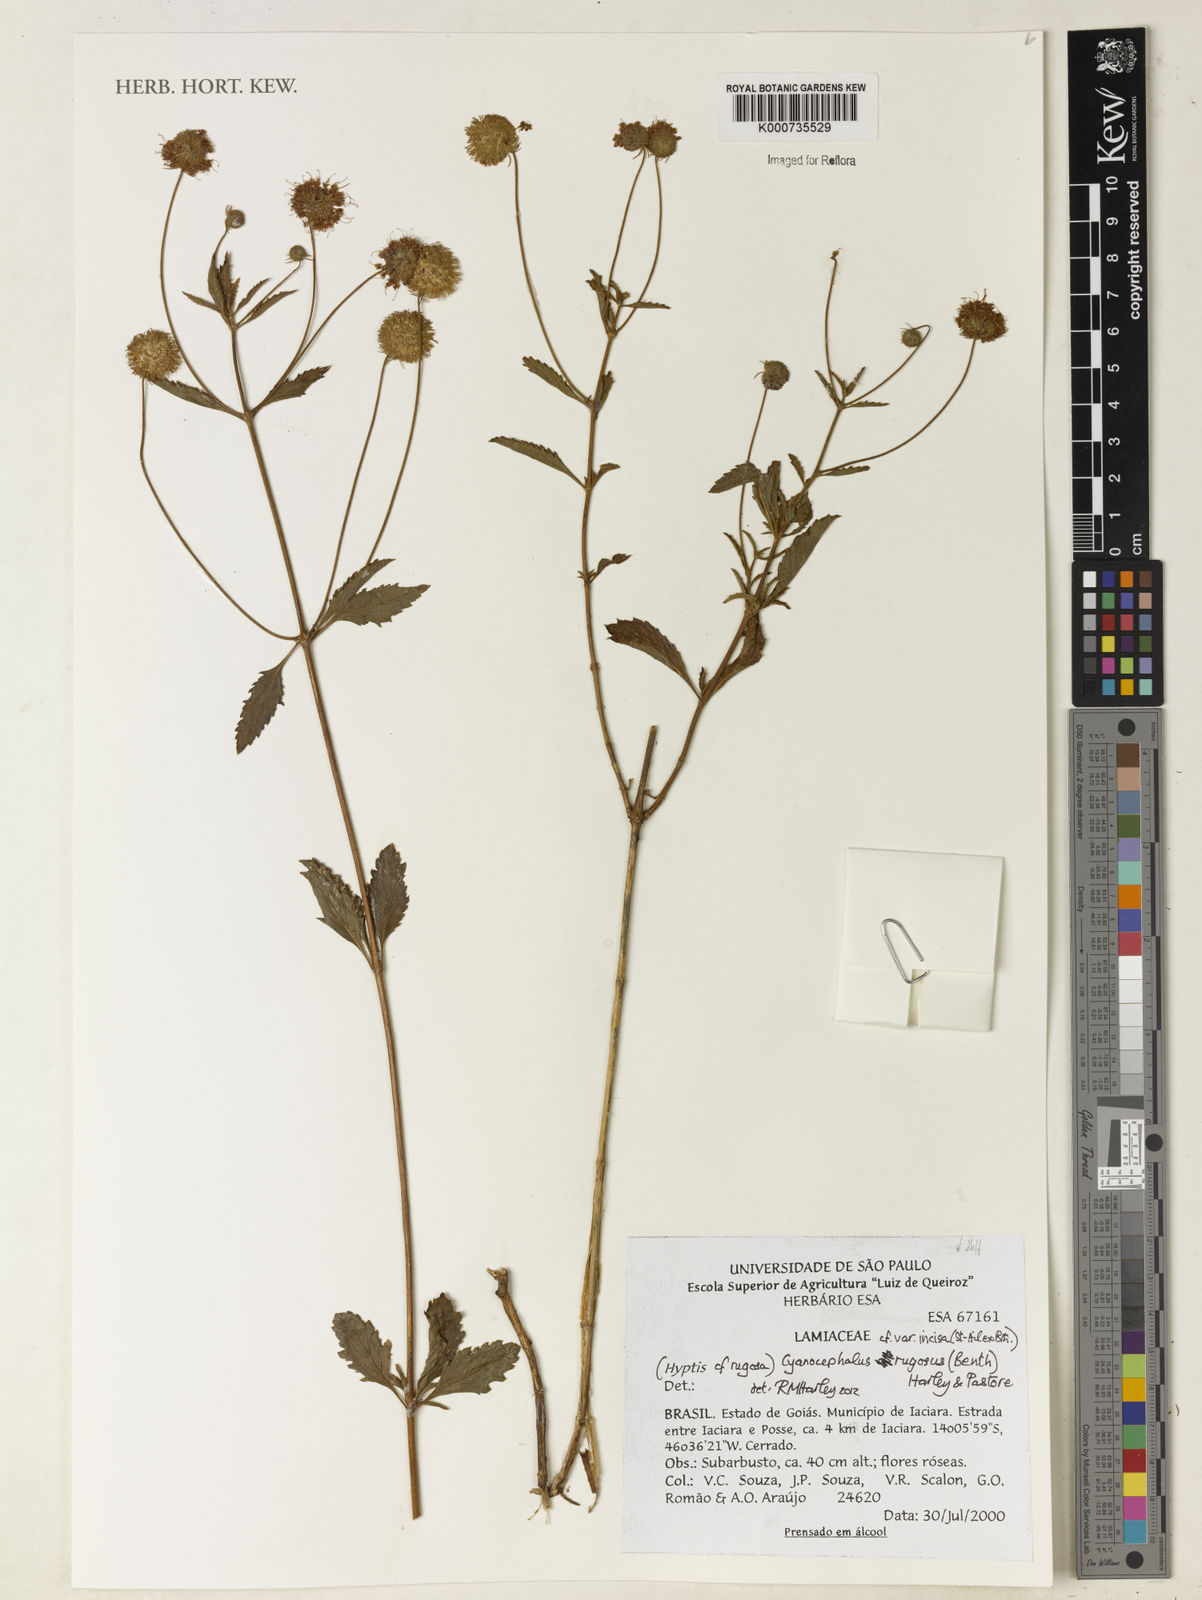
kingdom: Plantae
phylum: Tracheophyta
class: Magnoliopsida
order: Lamiales
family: Lamiaceae
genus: Cyanocephalus
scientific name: Cyanocephalus rugosus
